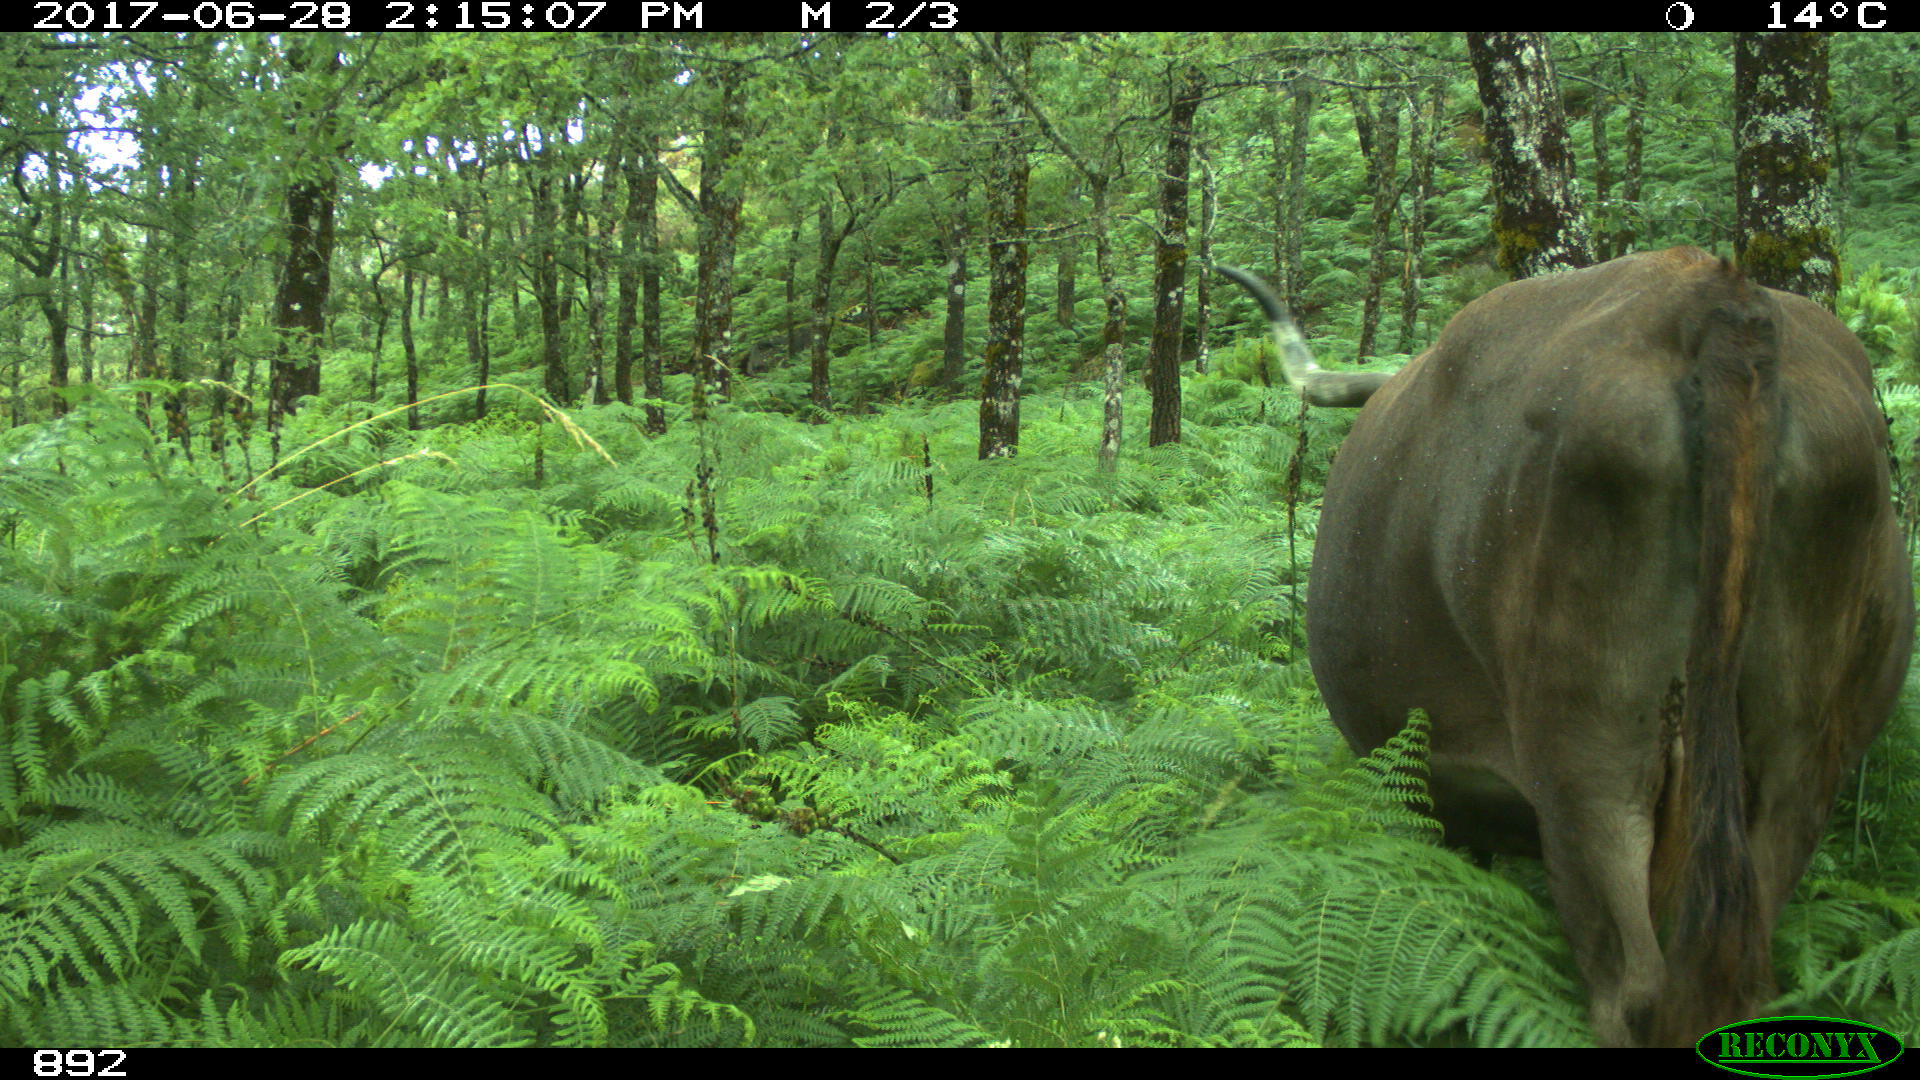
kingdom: Animalia
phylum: Chordata
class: Mammalia
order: Artiodactyla
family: Bovidae
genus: Bos
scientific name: Bos taurus
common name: Domesticated cattle
